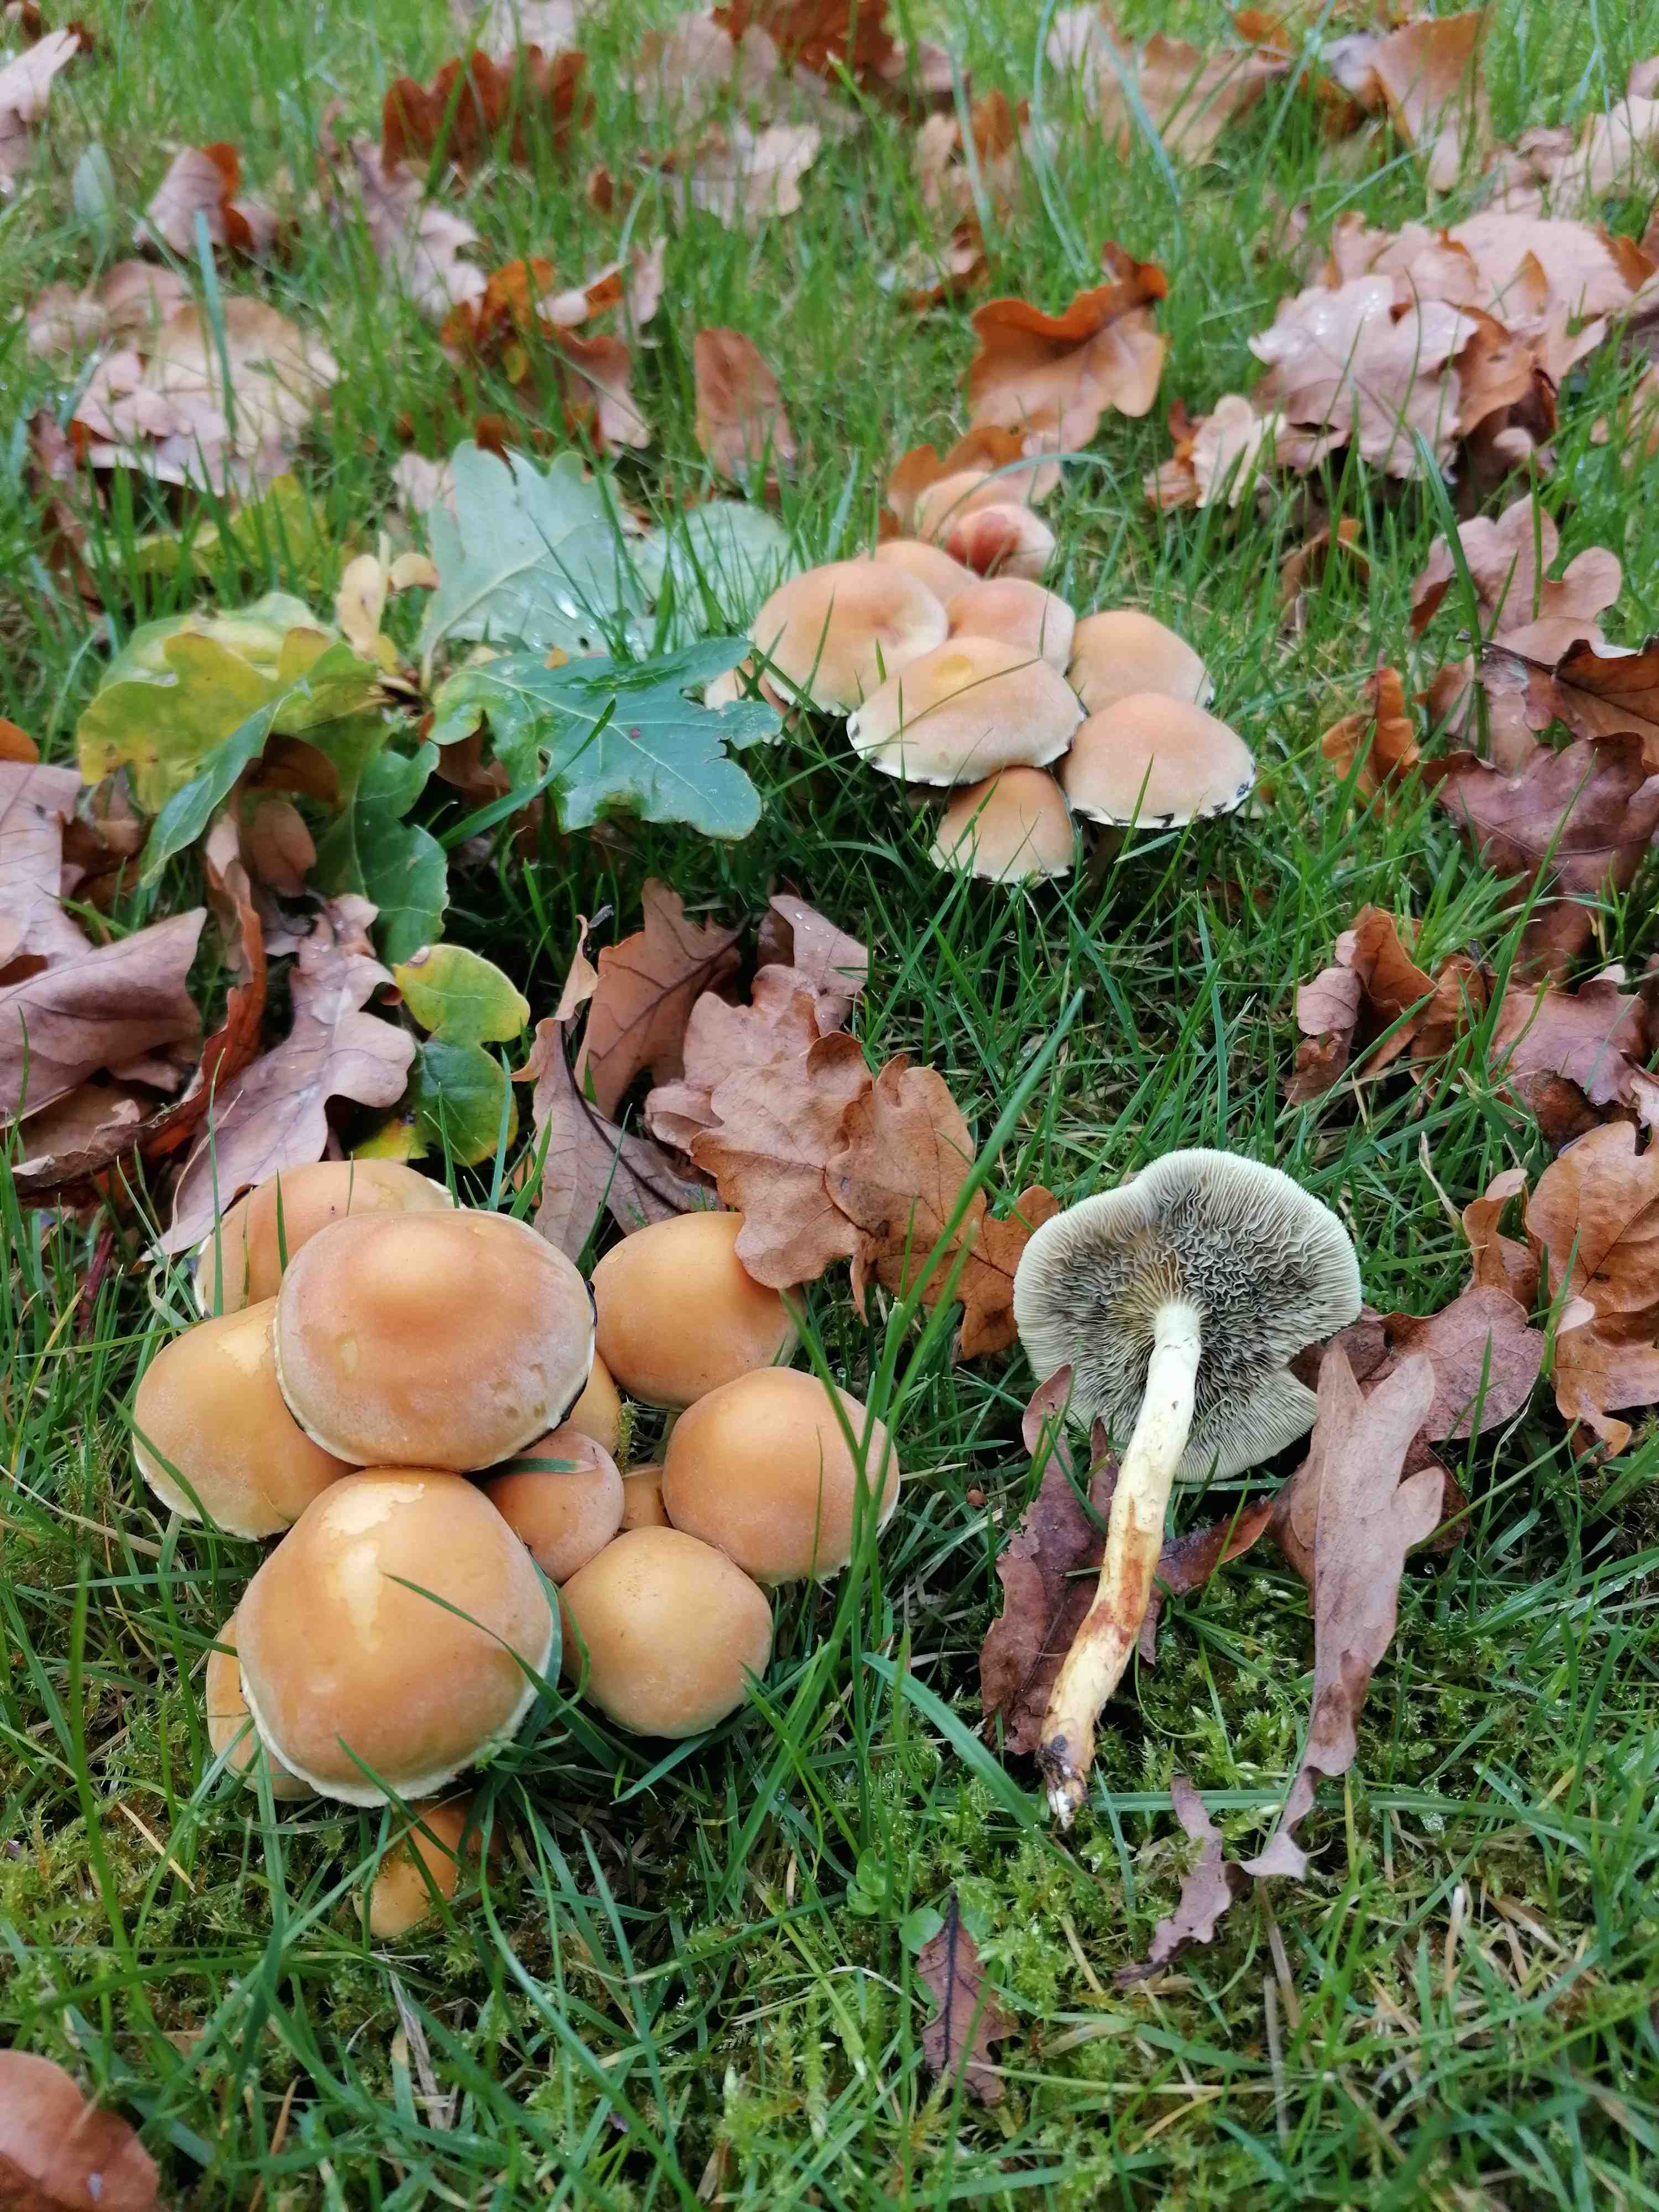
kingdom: Fungi
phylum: Basidiomycota
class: Agaricomycetes
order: Agaricales
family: Strophariaceae
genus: Hypholoma
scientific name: Hypholoma fasciculare
